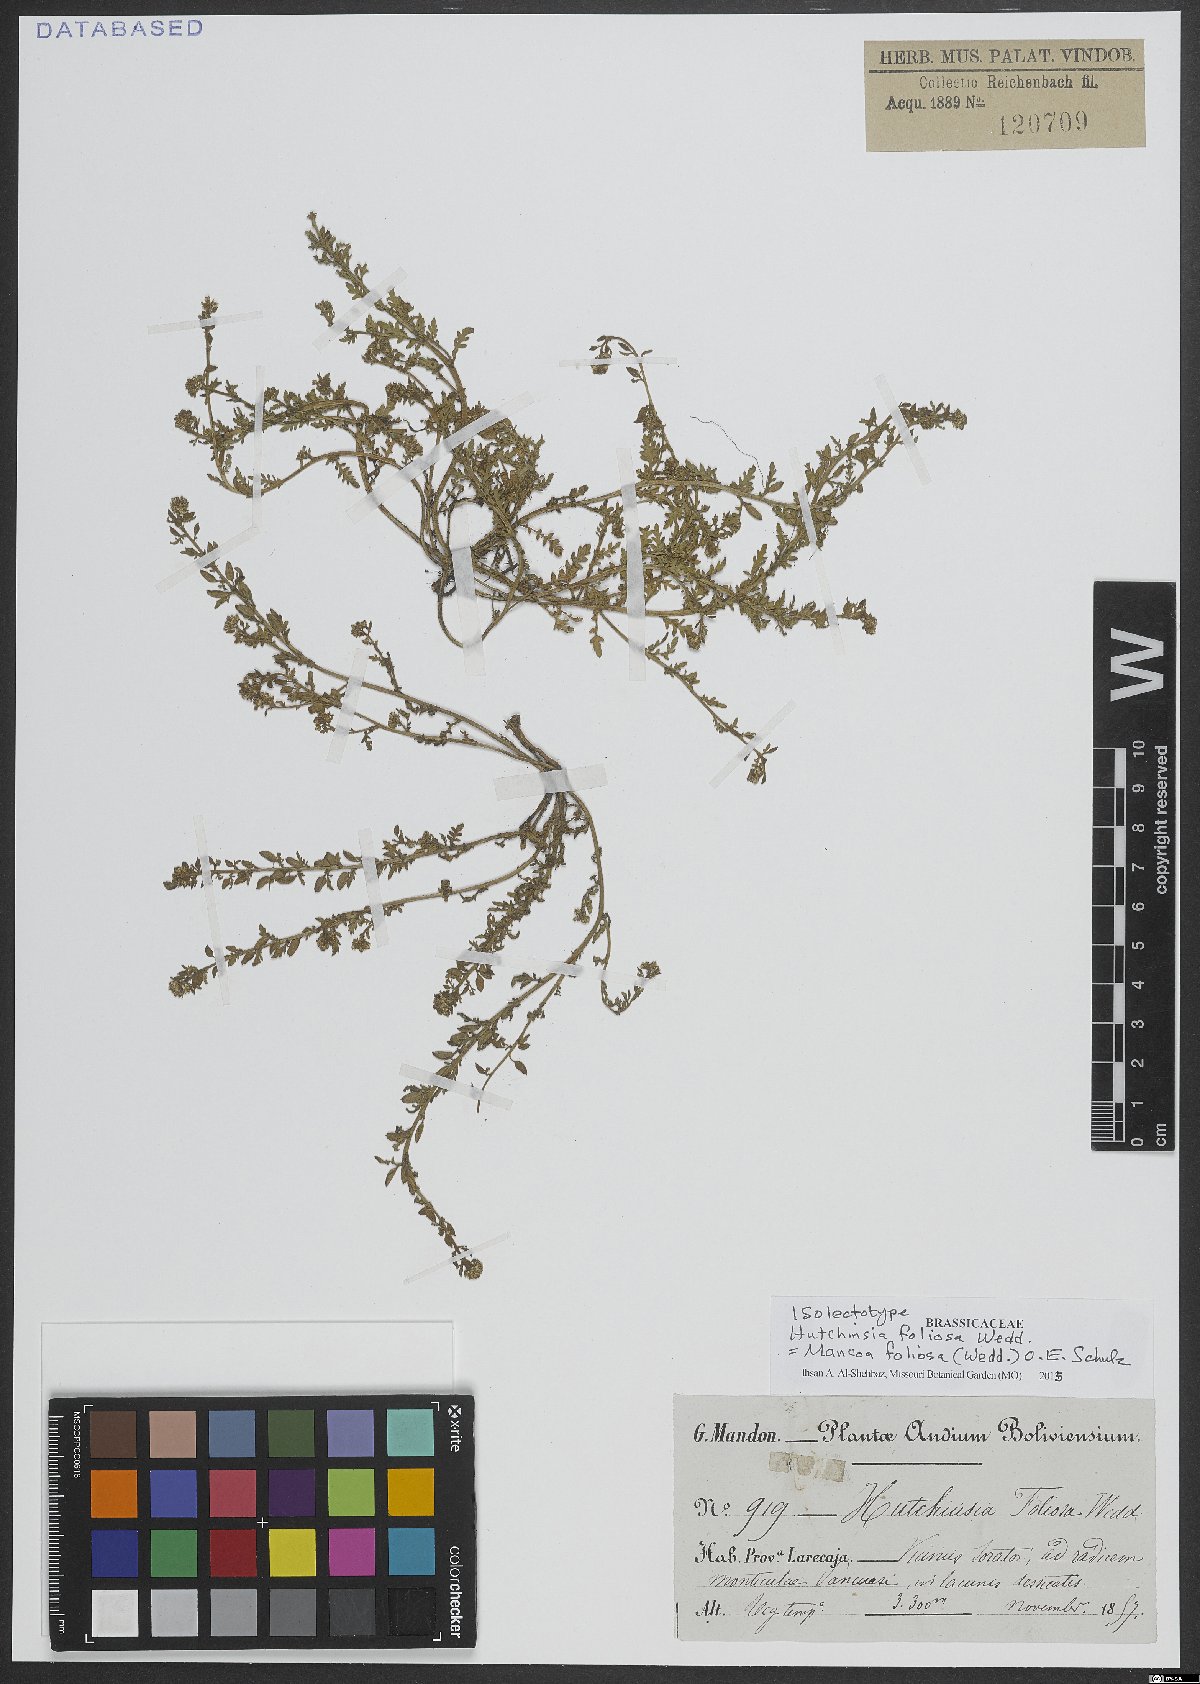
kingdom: Plantae
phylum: Tracheophyta
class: Magnoliopsida
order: Brassicales
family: Brassicaceae
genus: Mancoa
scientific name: Mancoa foliosa
